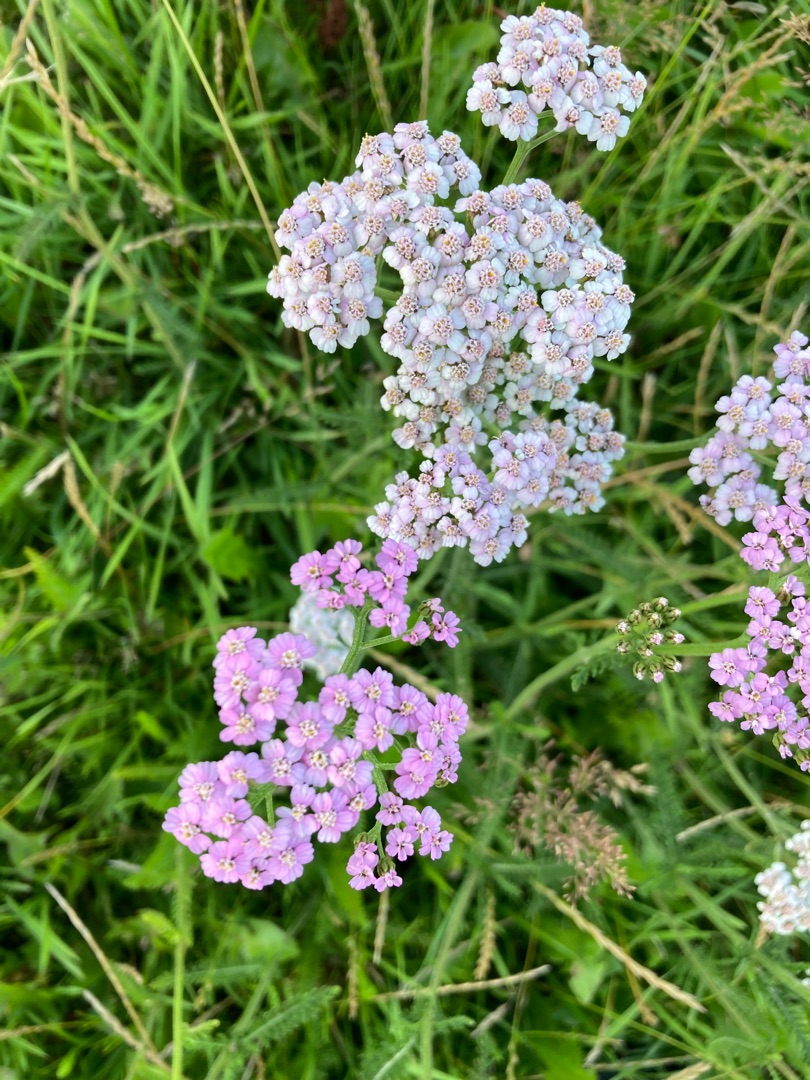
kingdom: Plantae
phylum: Tracheophyta
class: Magnoliopsida
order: Asterales
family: Asteraceae
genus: Achillea
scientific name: Achillea millefolium
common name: Almindelig røllike
